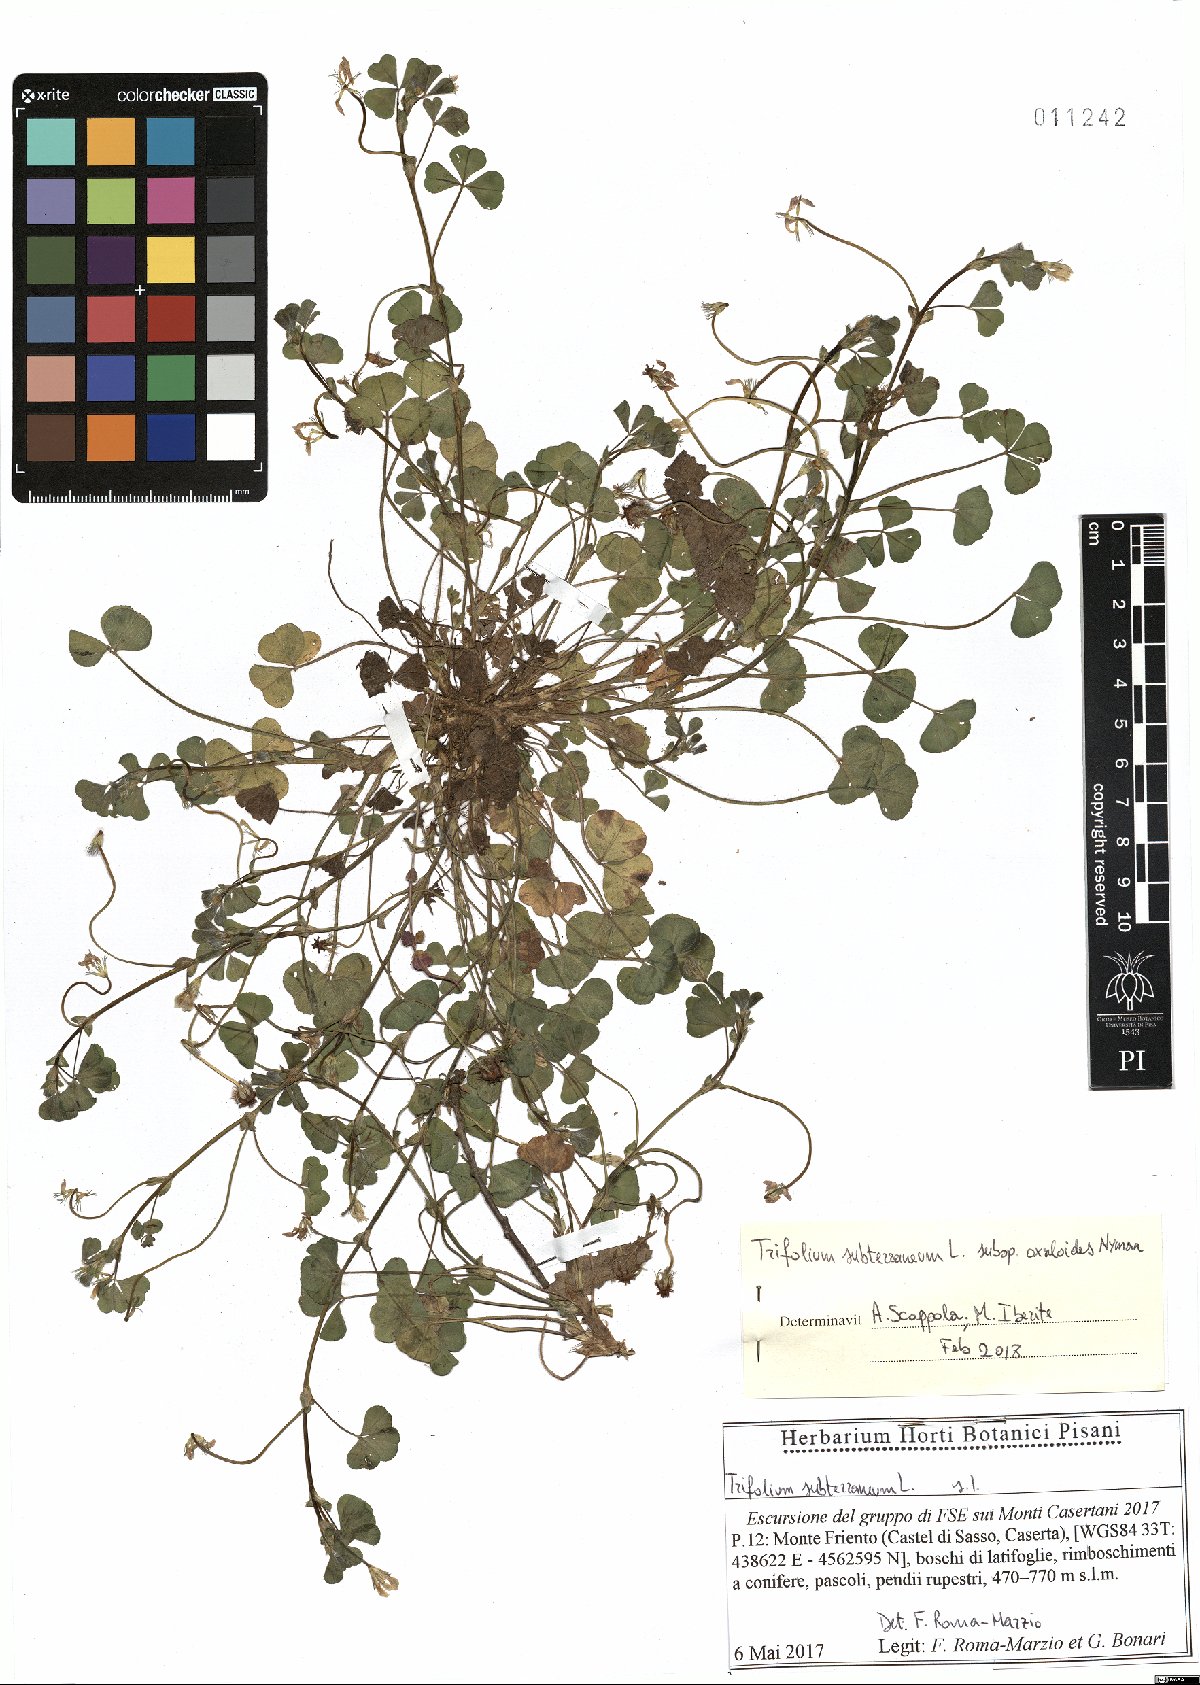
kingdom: Plantae
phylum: Tracheophyta
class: Magnoliopsida
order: Fabales
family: Fabaceae
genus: Trifolium
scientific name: Trifolium subterraneum
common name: Subterranean clover
